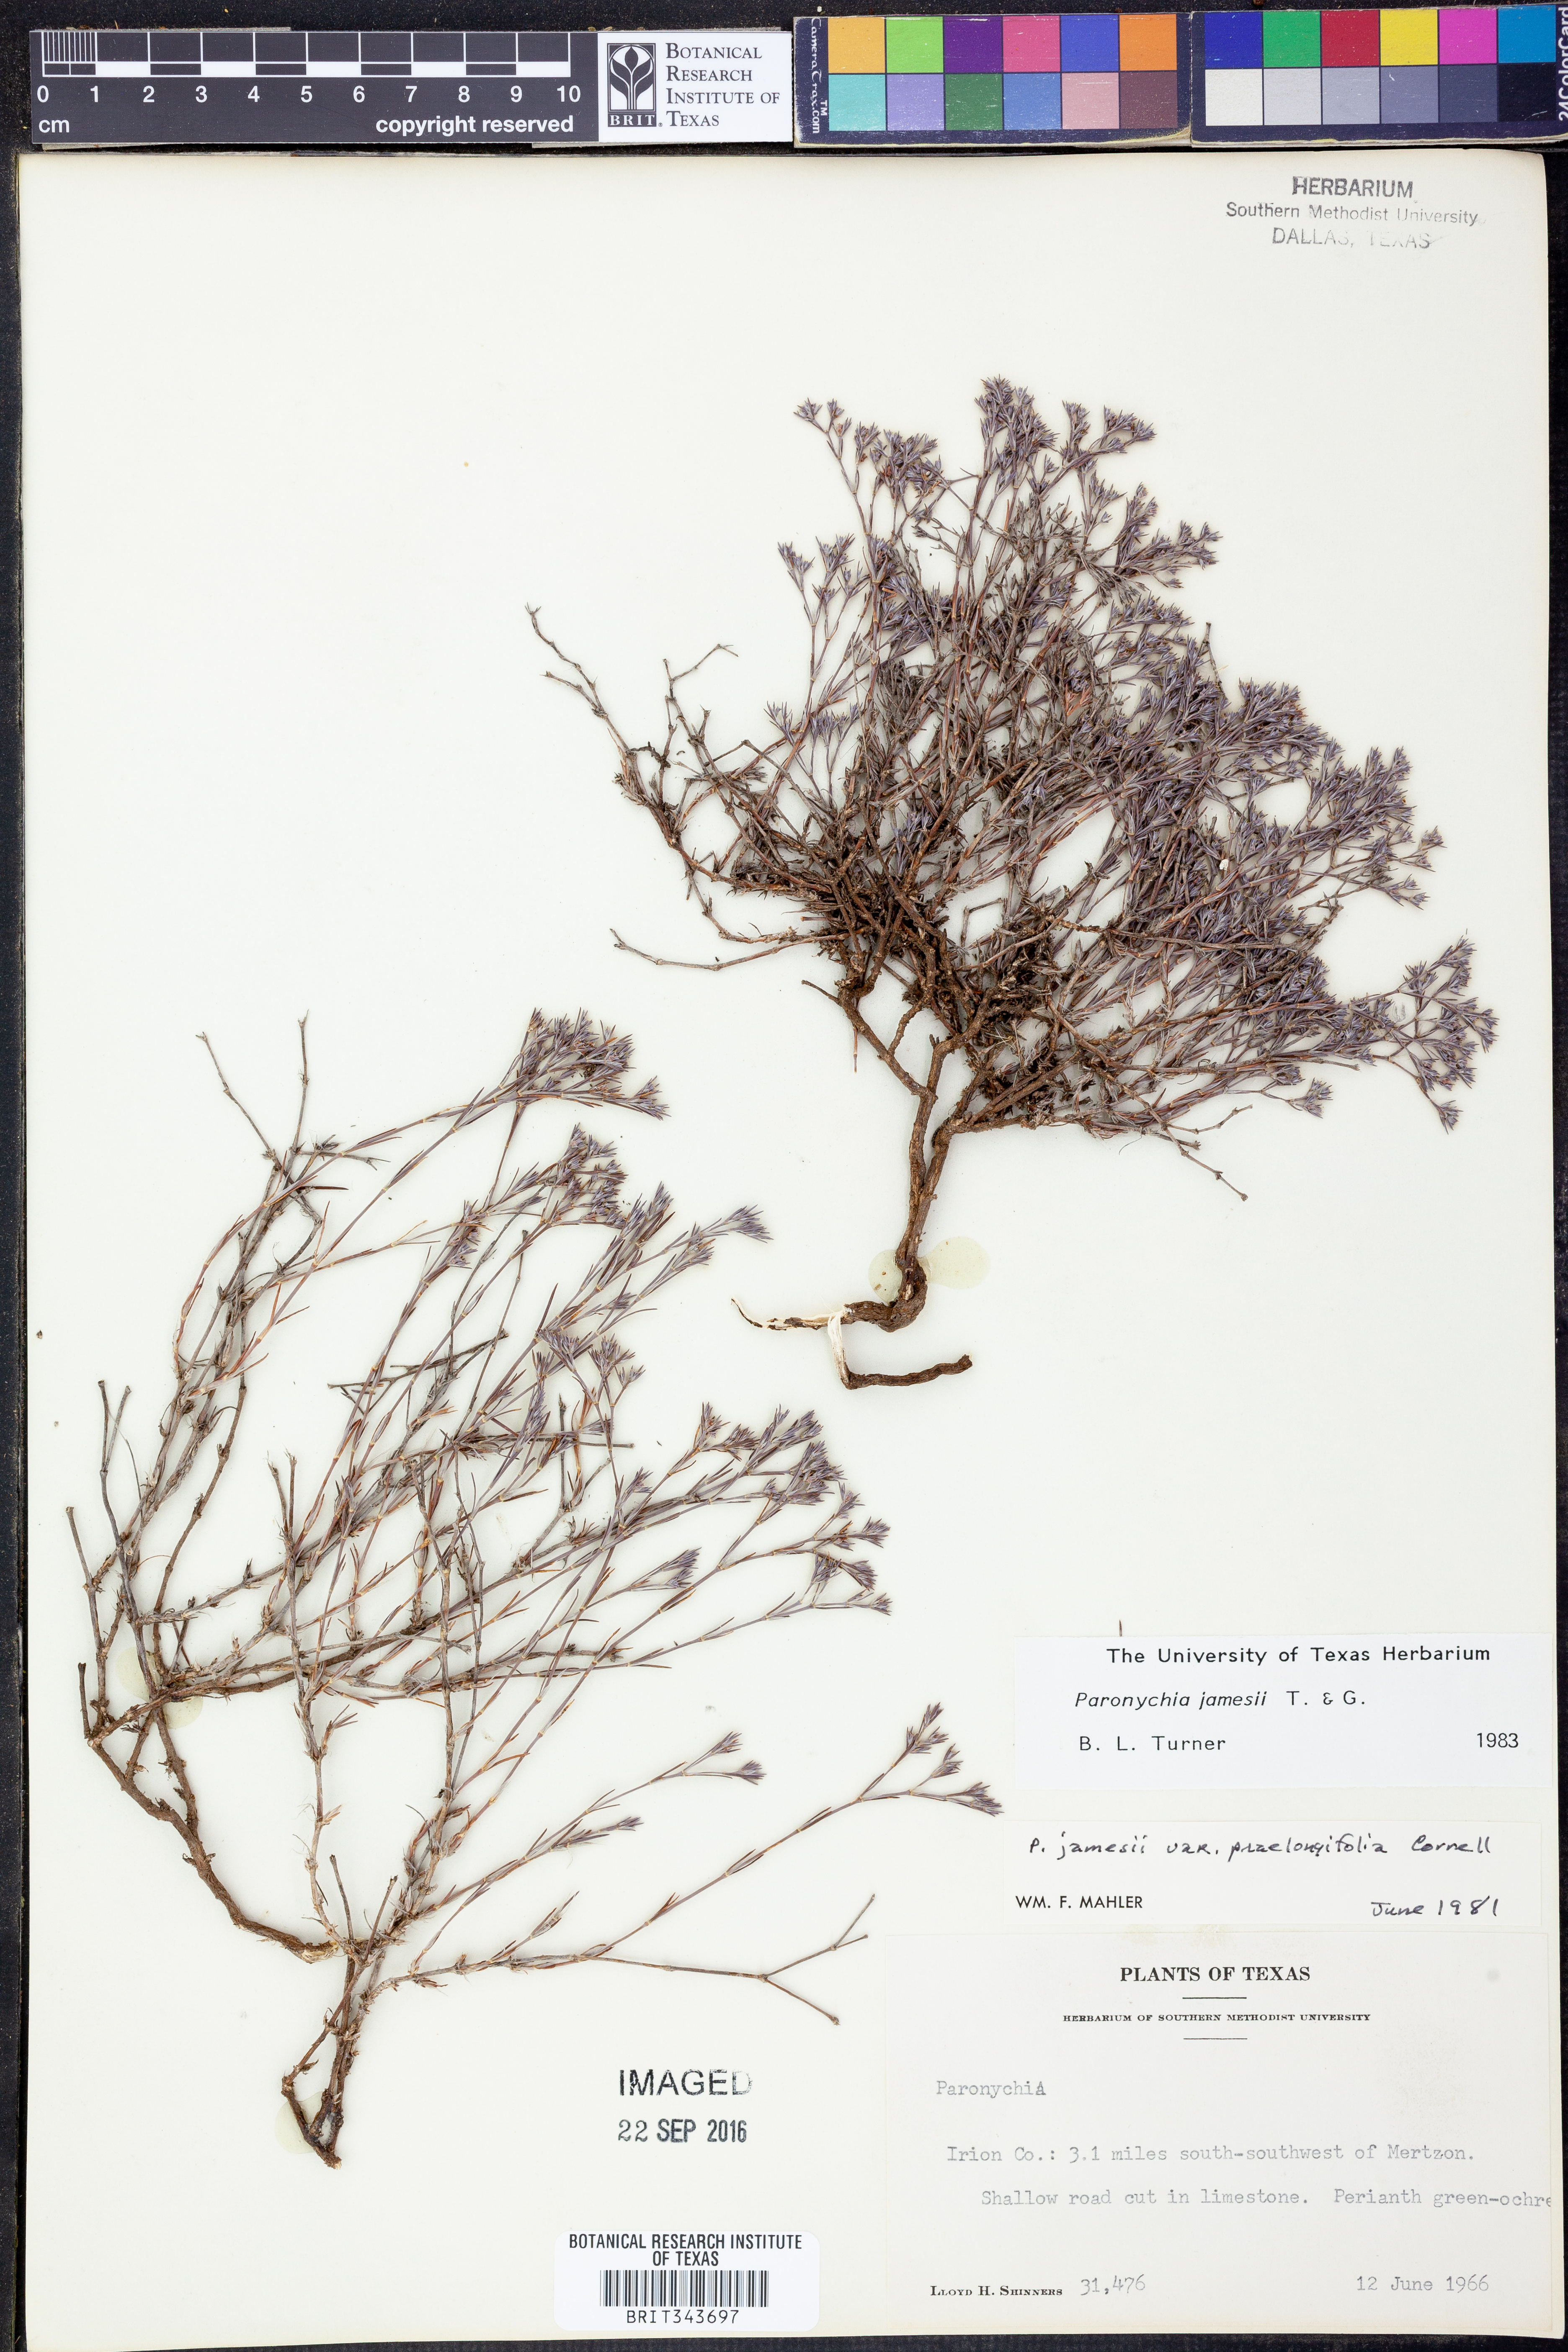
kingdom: Plantae
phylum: Tracheophyta
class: Magnoliopsida
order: Caryophyllales
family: Caryophyllaceae
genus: Paronychia
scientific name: Paronychia jamesii
